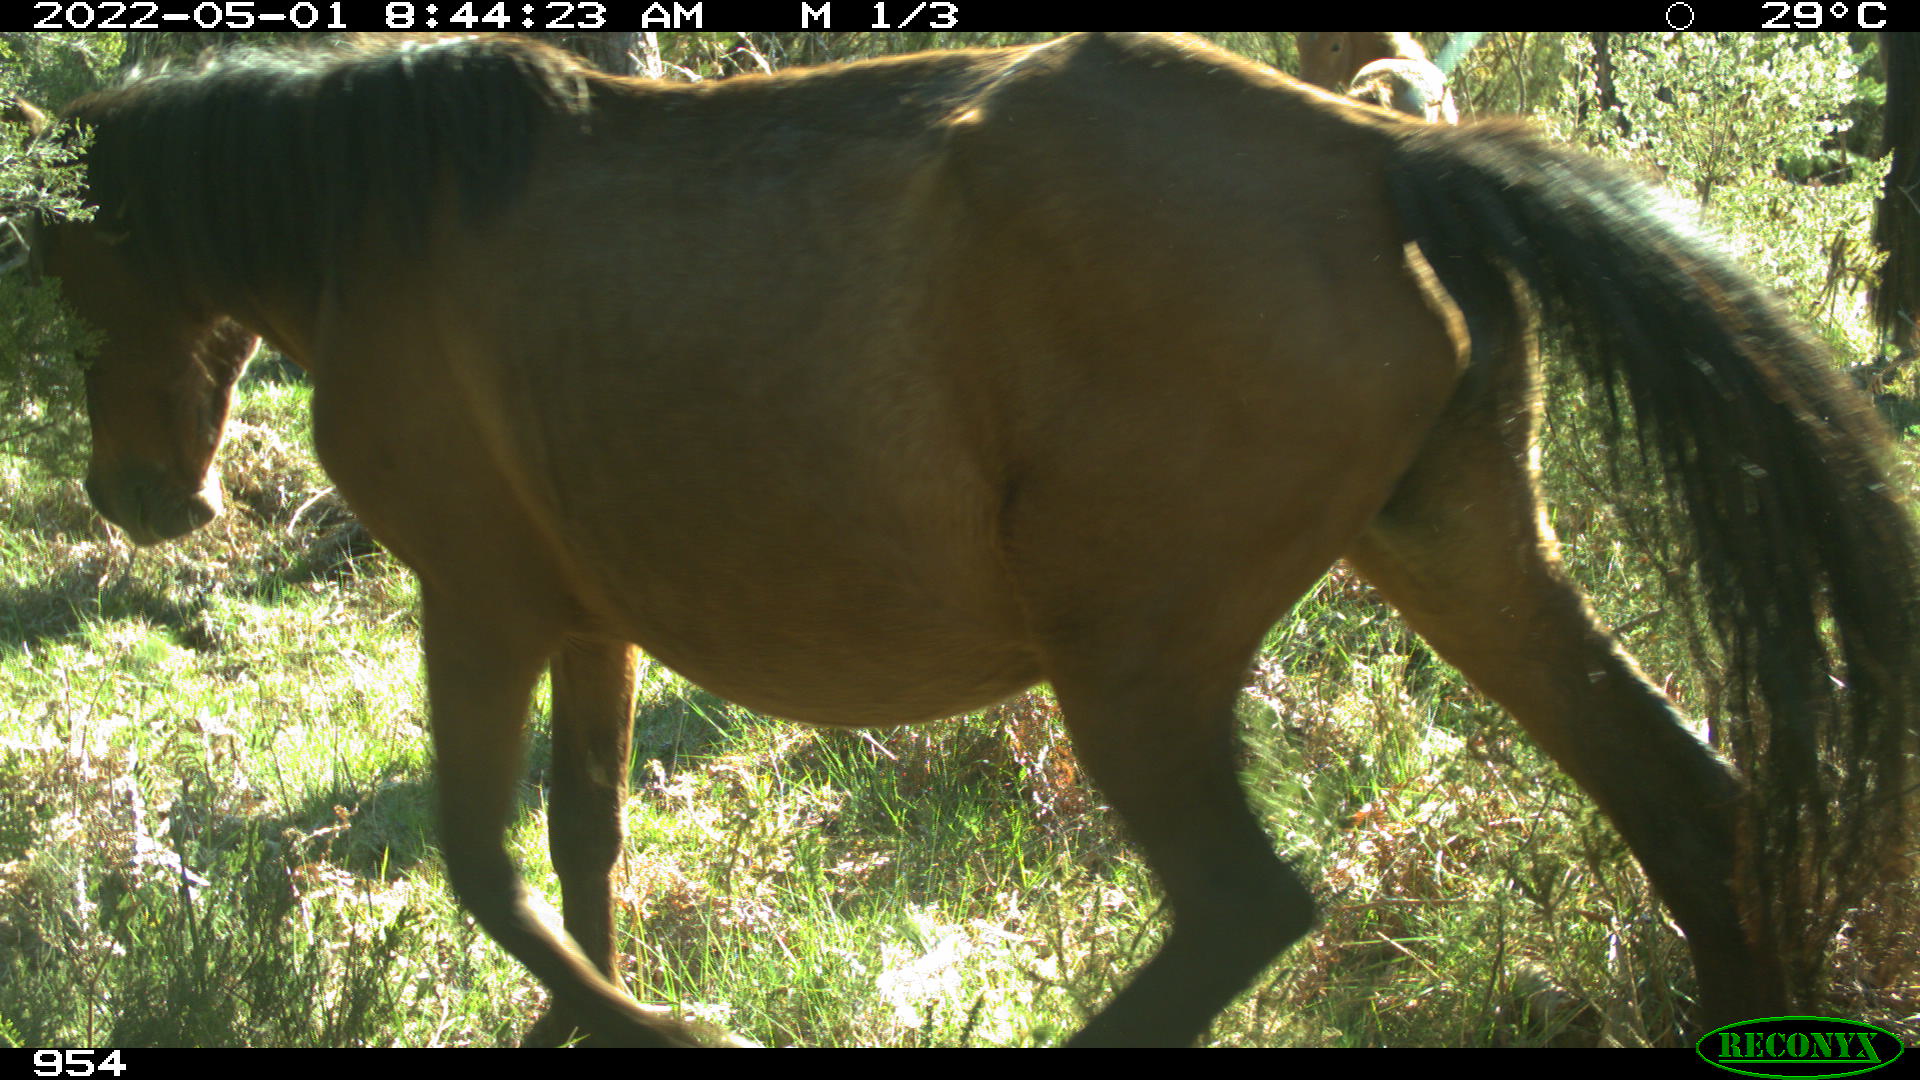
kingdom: Animalia
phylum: Chordata
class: Mammalia
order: Perissodactyla
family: Equidae
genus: Equus
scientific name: Equus caballus
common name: Horse
